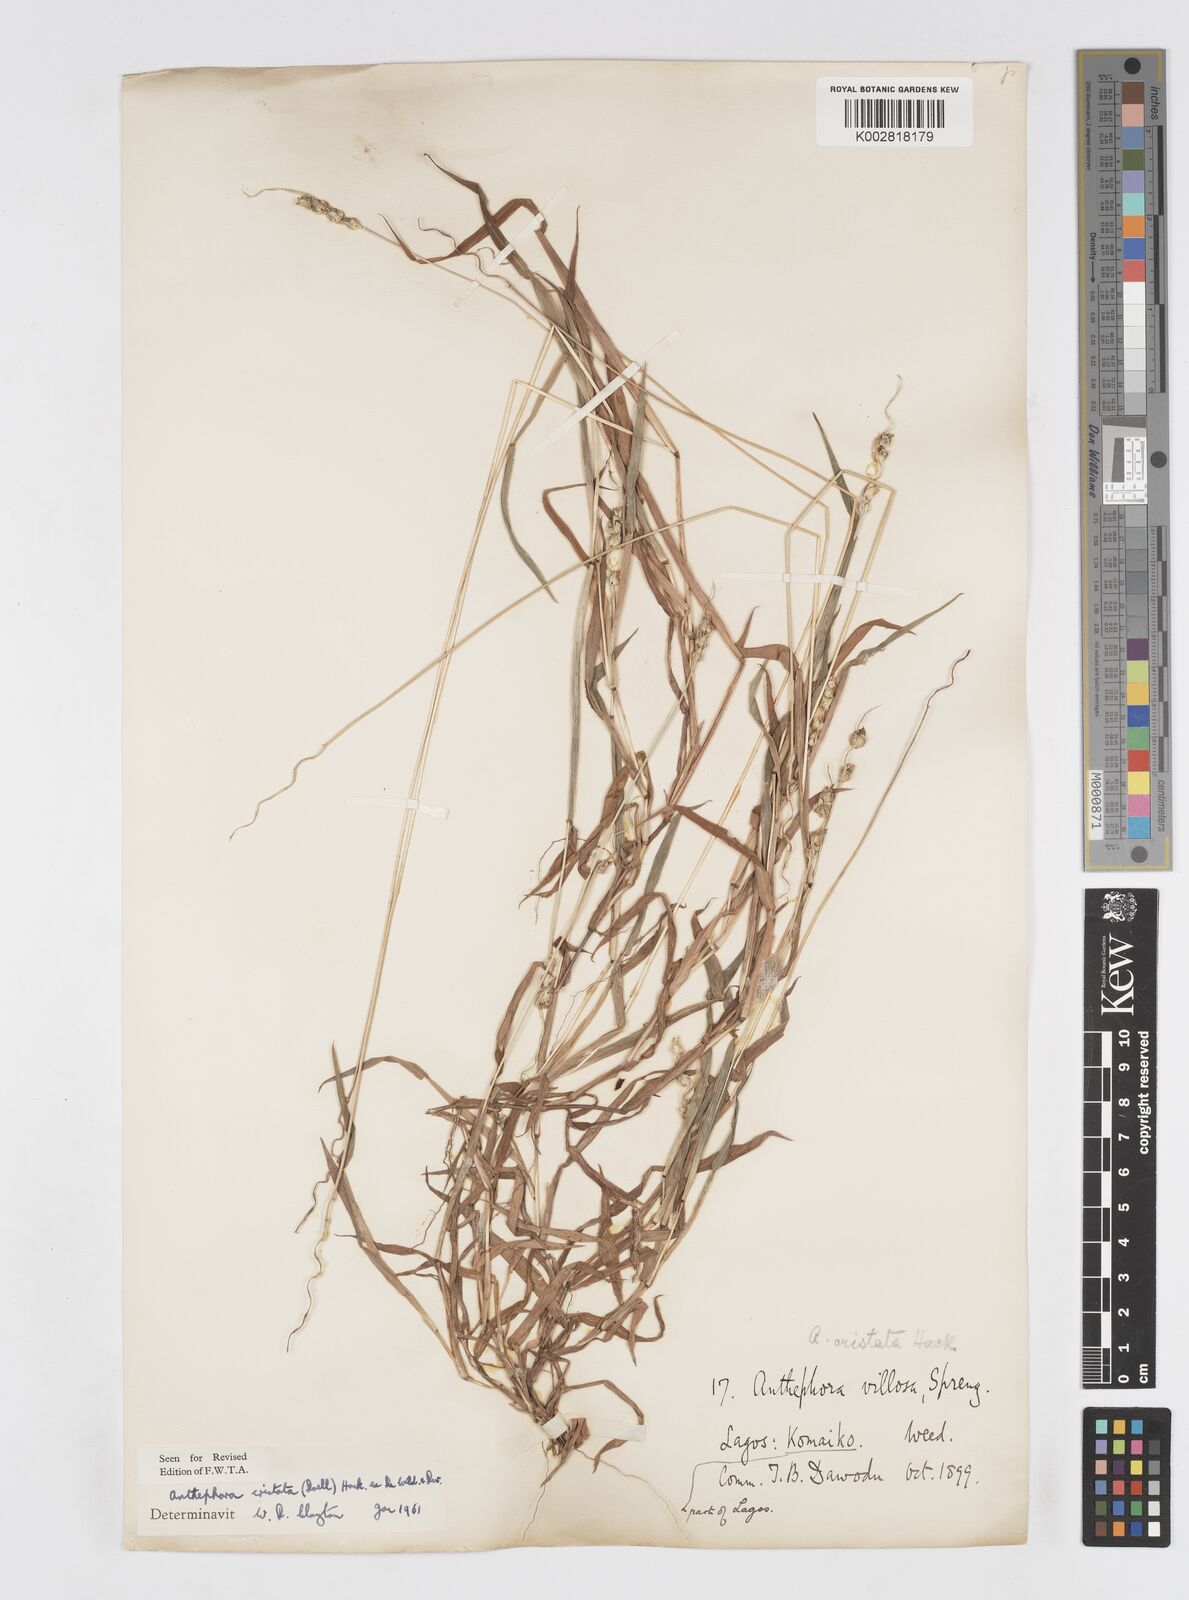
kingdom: Plantae
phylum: Tracheophyta
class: Liliopsida
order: Poales
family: Poaceae
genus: Anthephora
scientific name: Anthephora cristata
